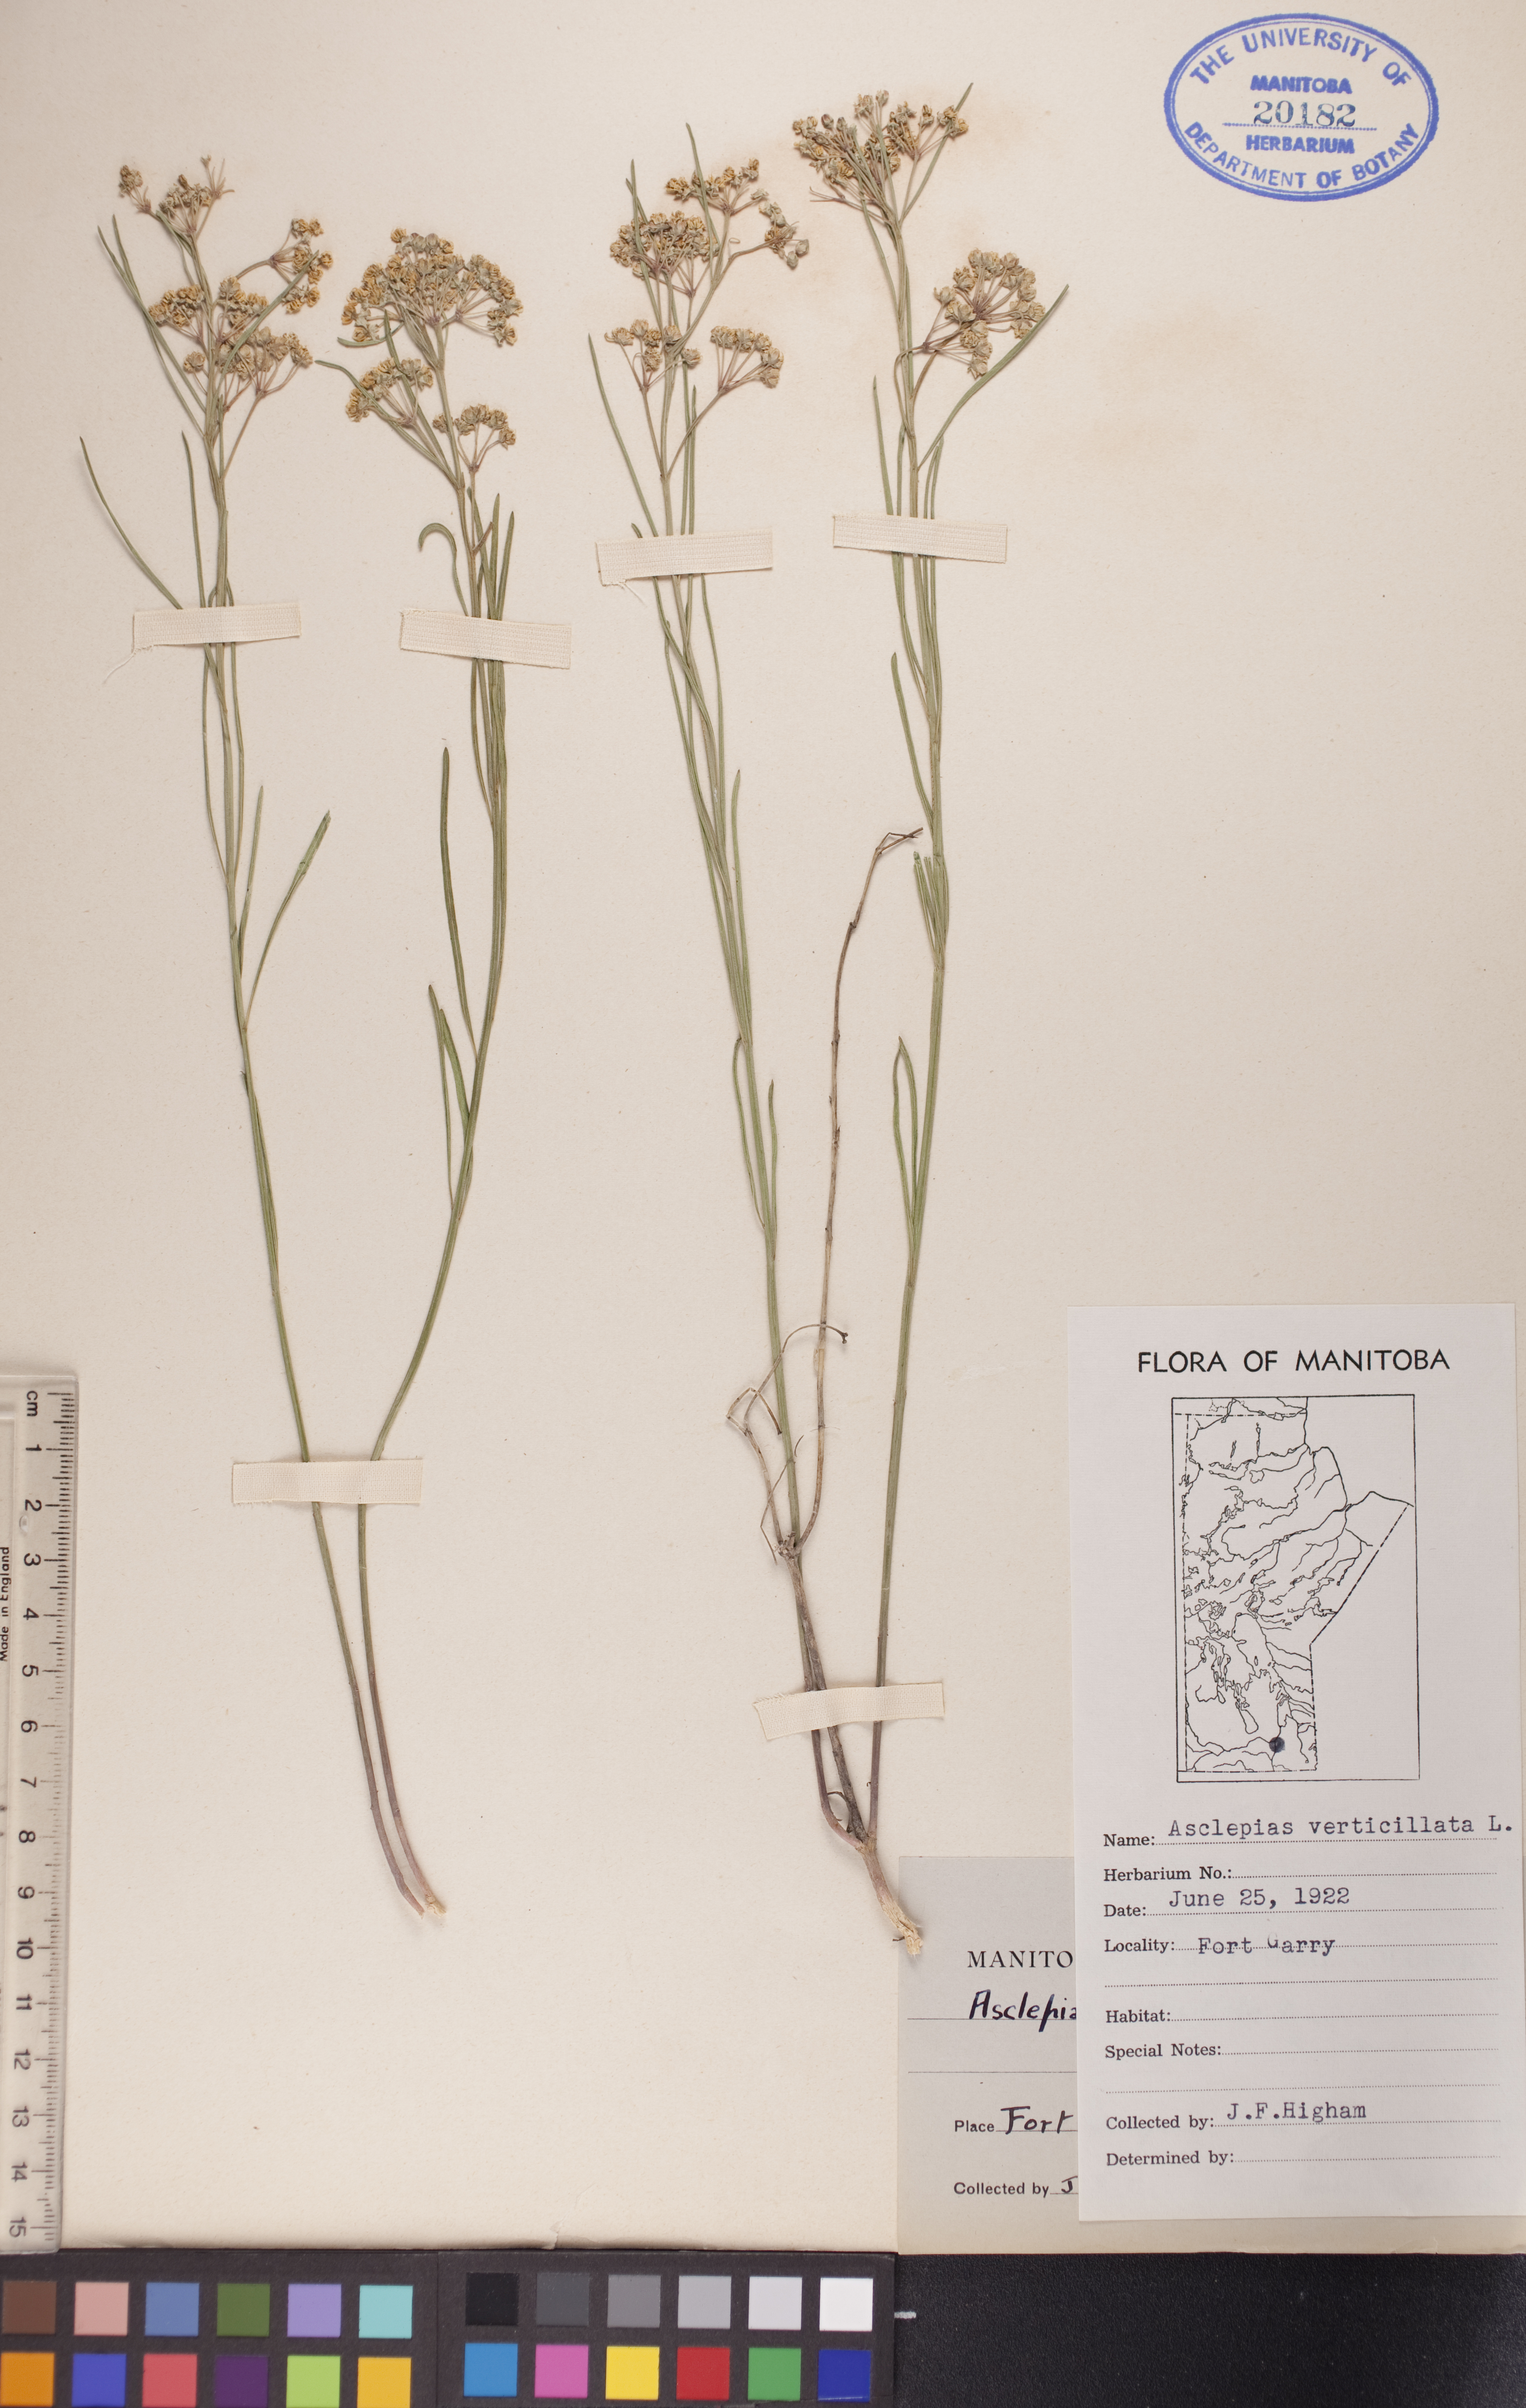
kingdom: Plantae
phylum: Tracheophyta
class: Magnoliopsida
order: Gentianales
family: Apocynaceae
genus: Asclepias
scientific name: Asclepias verticillata
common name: Eastern whorled milkweed
